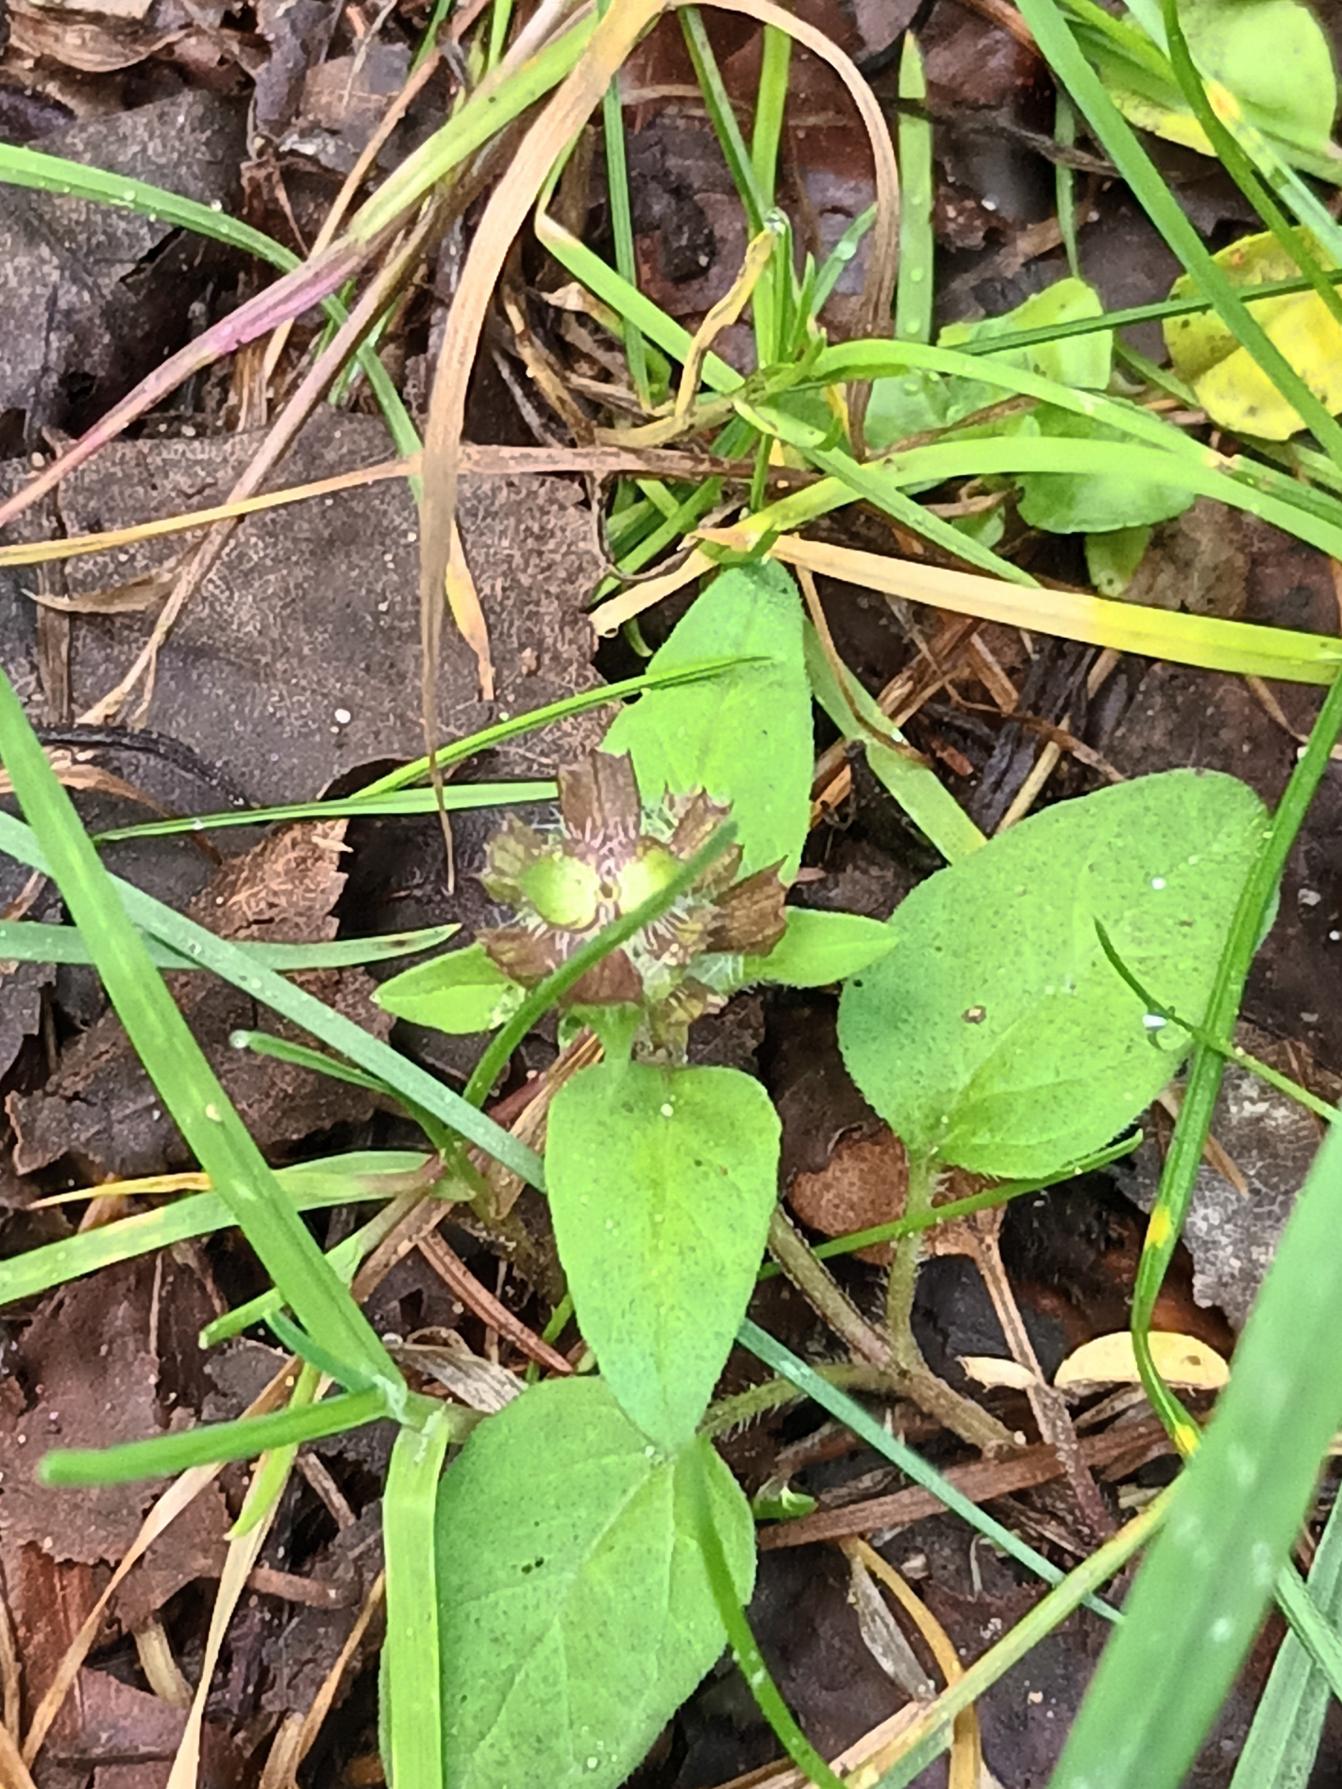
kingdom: Plantae
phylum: Tracheophyta
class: Magnoliopsida
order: Lamiales
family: Lamiaceae
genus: Prunella
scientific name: Prunella vulgaris
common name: Almindelig brunelle
